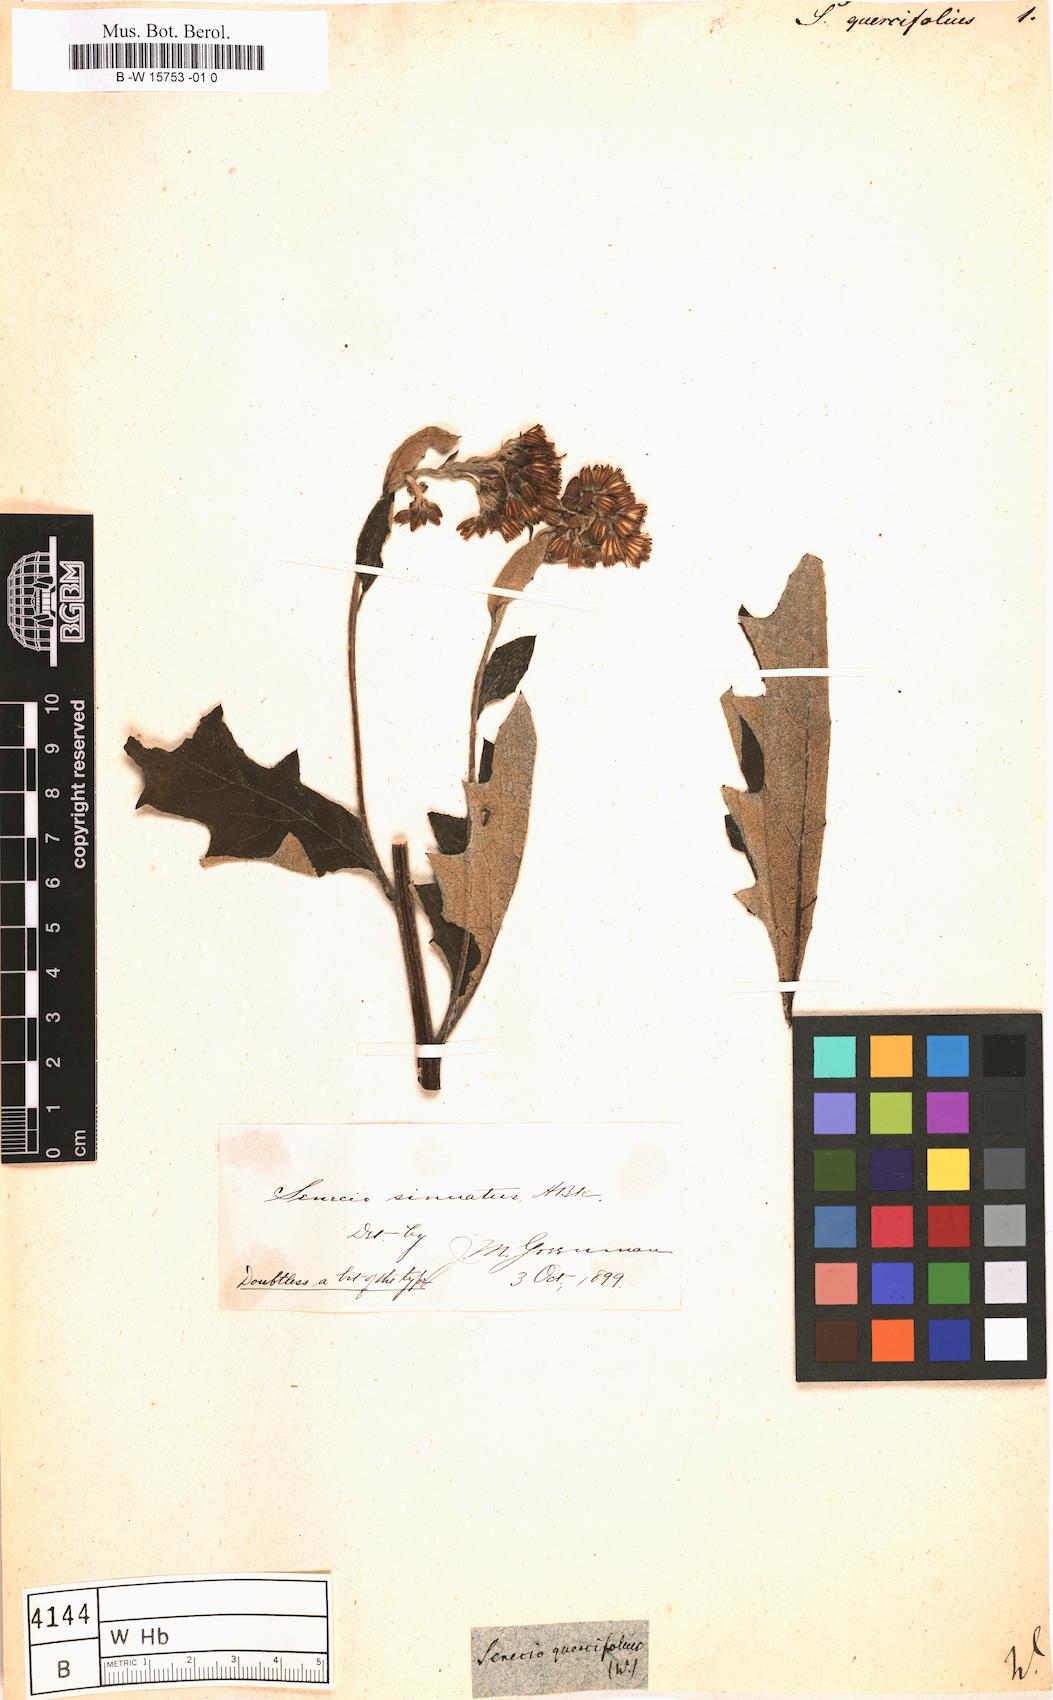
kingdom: Plantae
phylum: Tracheophyta
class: Magnoliopsida
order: Asterales
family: Asteraceae
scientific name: Asteraceae
